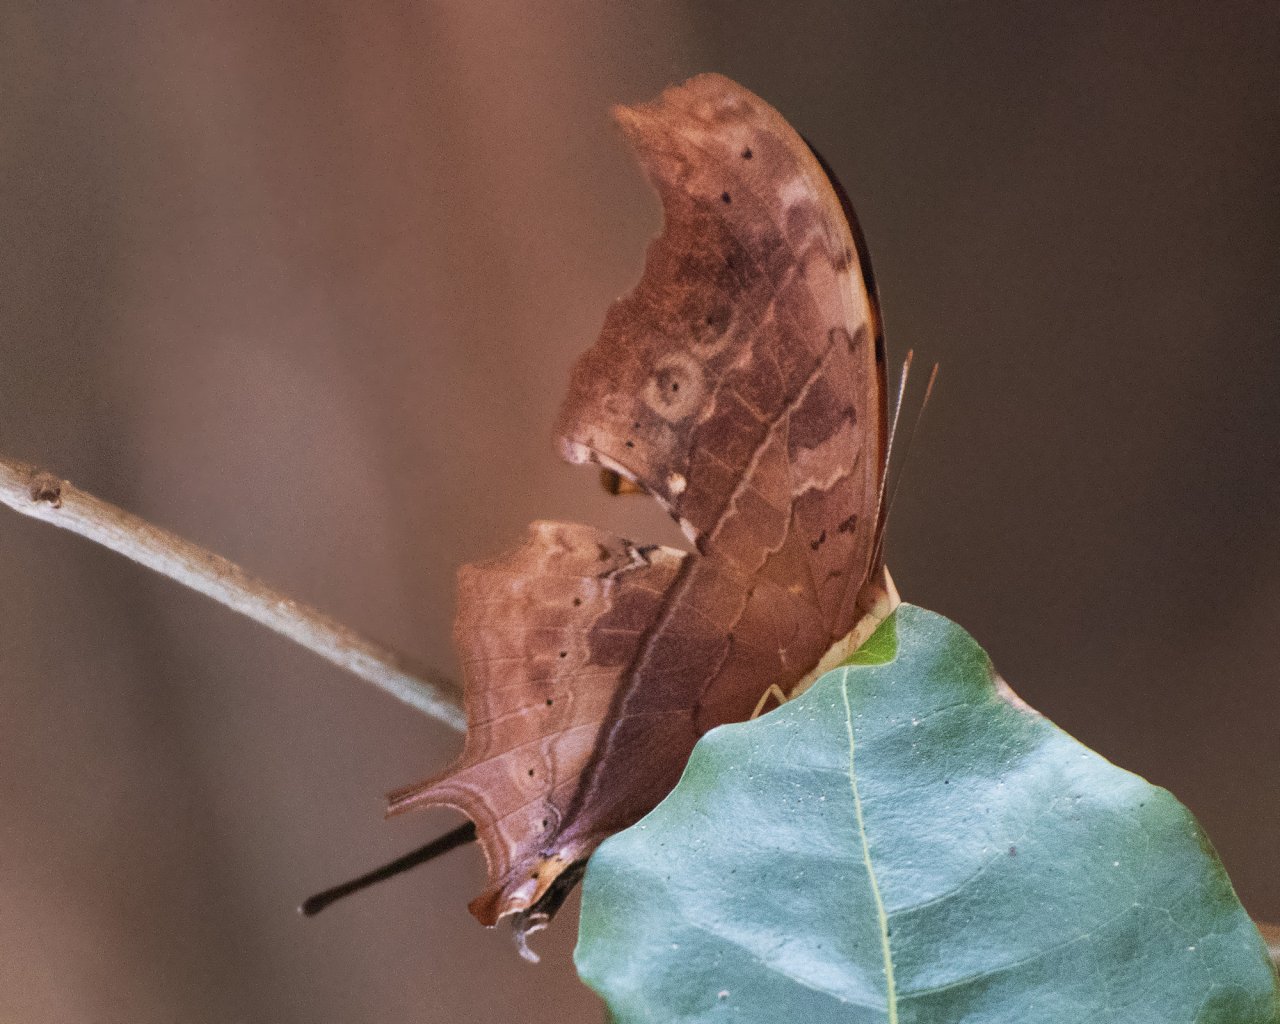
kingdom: Animalia
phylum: Arthropoda
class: Insecta
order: Lepidoptera
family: Nymphalidae
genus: Marpesia
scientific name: Marpesia petreus
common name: Ruddy Daggerwing
